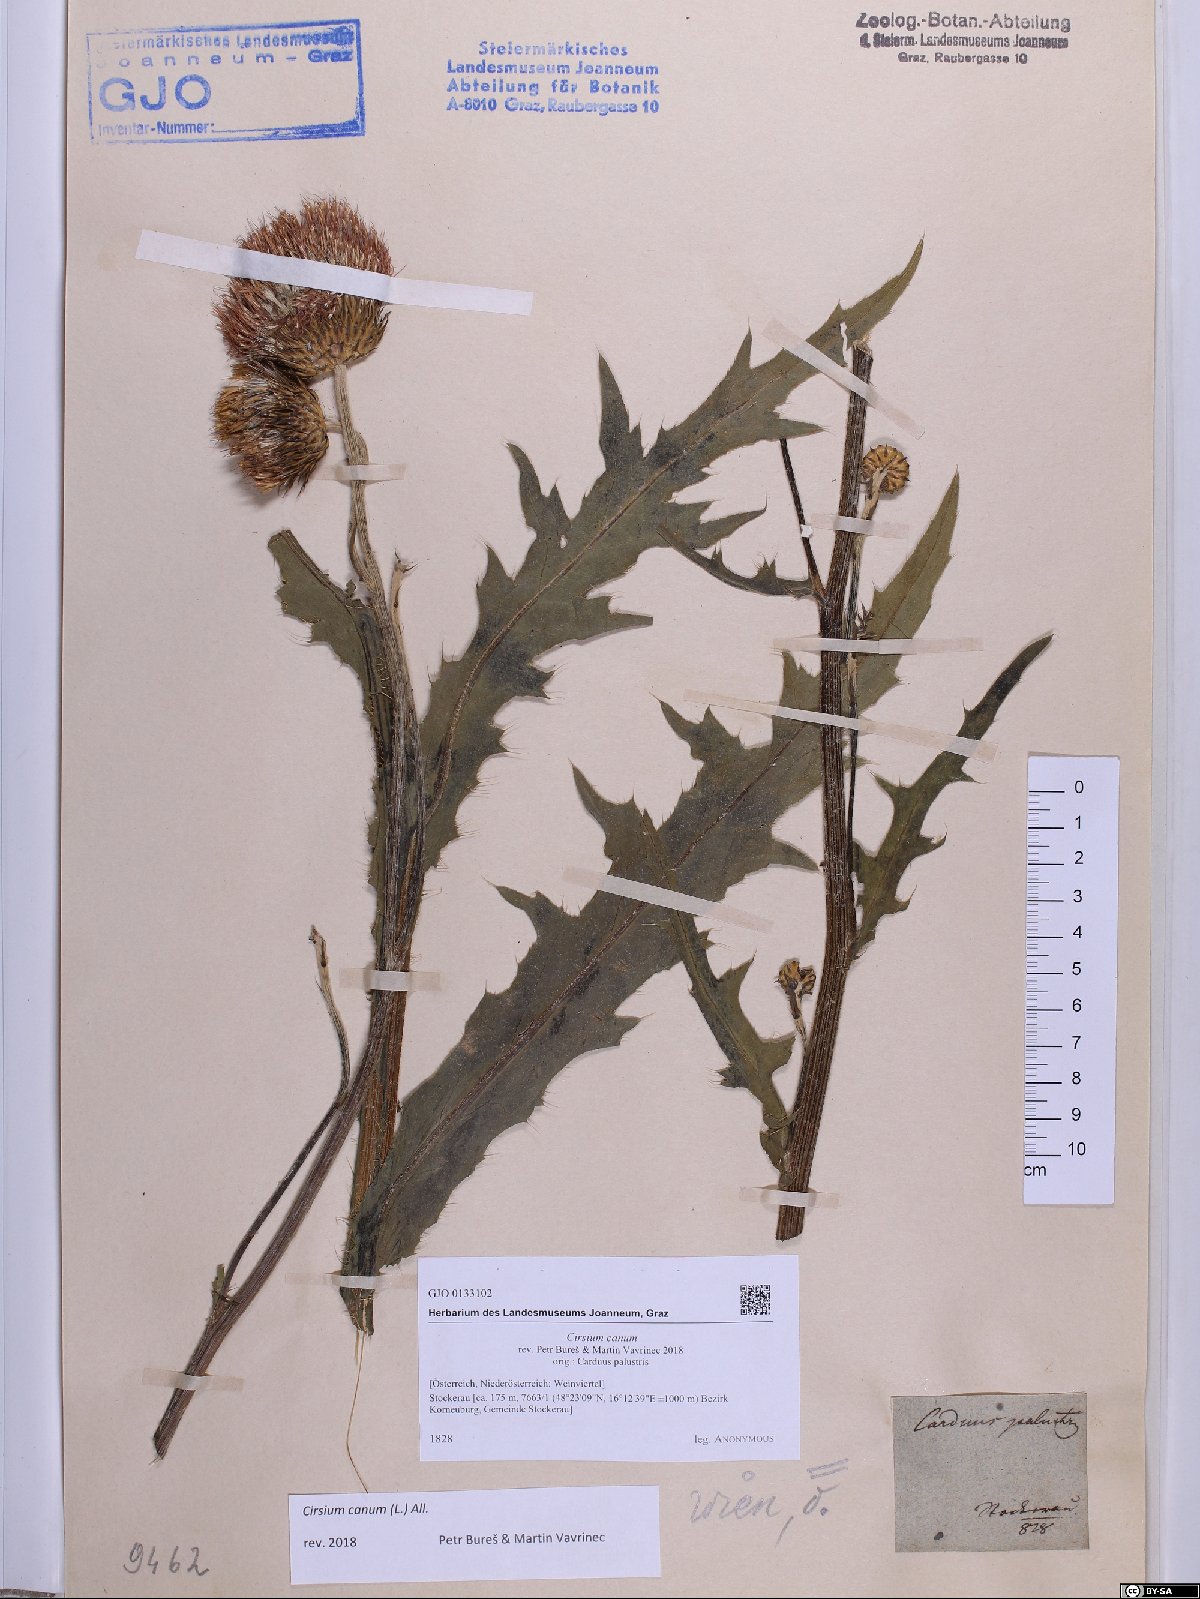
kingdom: Plantae
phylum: Tracheophyta
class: Magnoliopsida
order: Asterales
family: Asteraceae
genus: Cirsium
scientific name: Cirsium canum
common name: Queen anne's thistle
